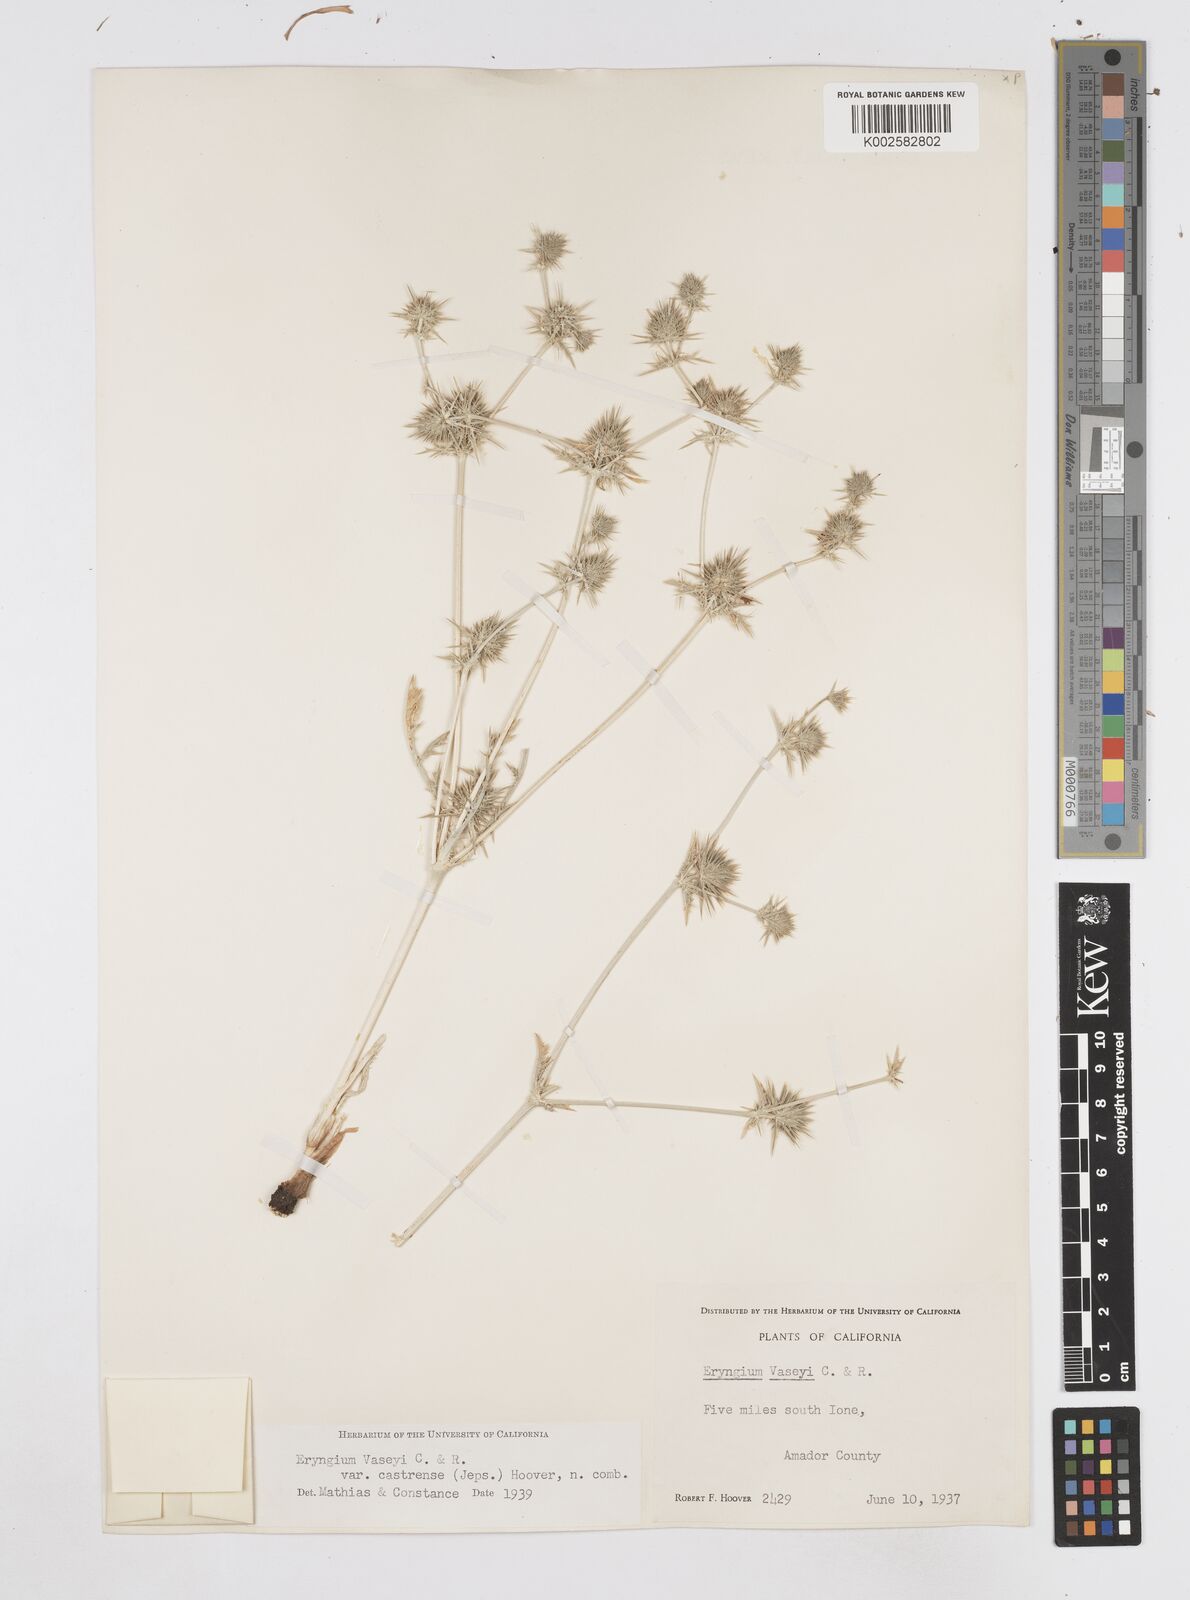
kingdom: Plantae
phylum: Tracheophyta
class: Magnoliopsida
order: Apiales
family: Apiaceae
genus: Eryngium
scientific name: Eryngium castrense
